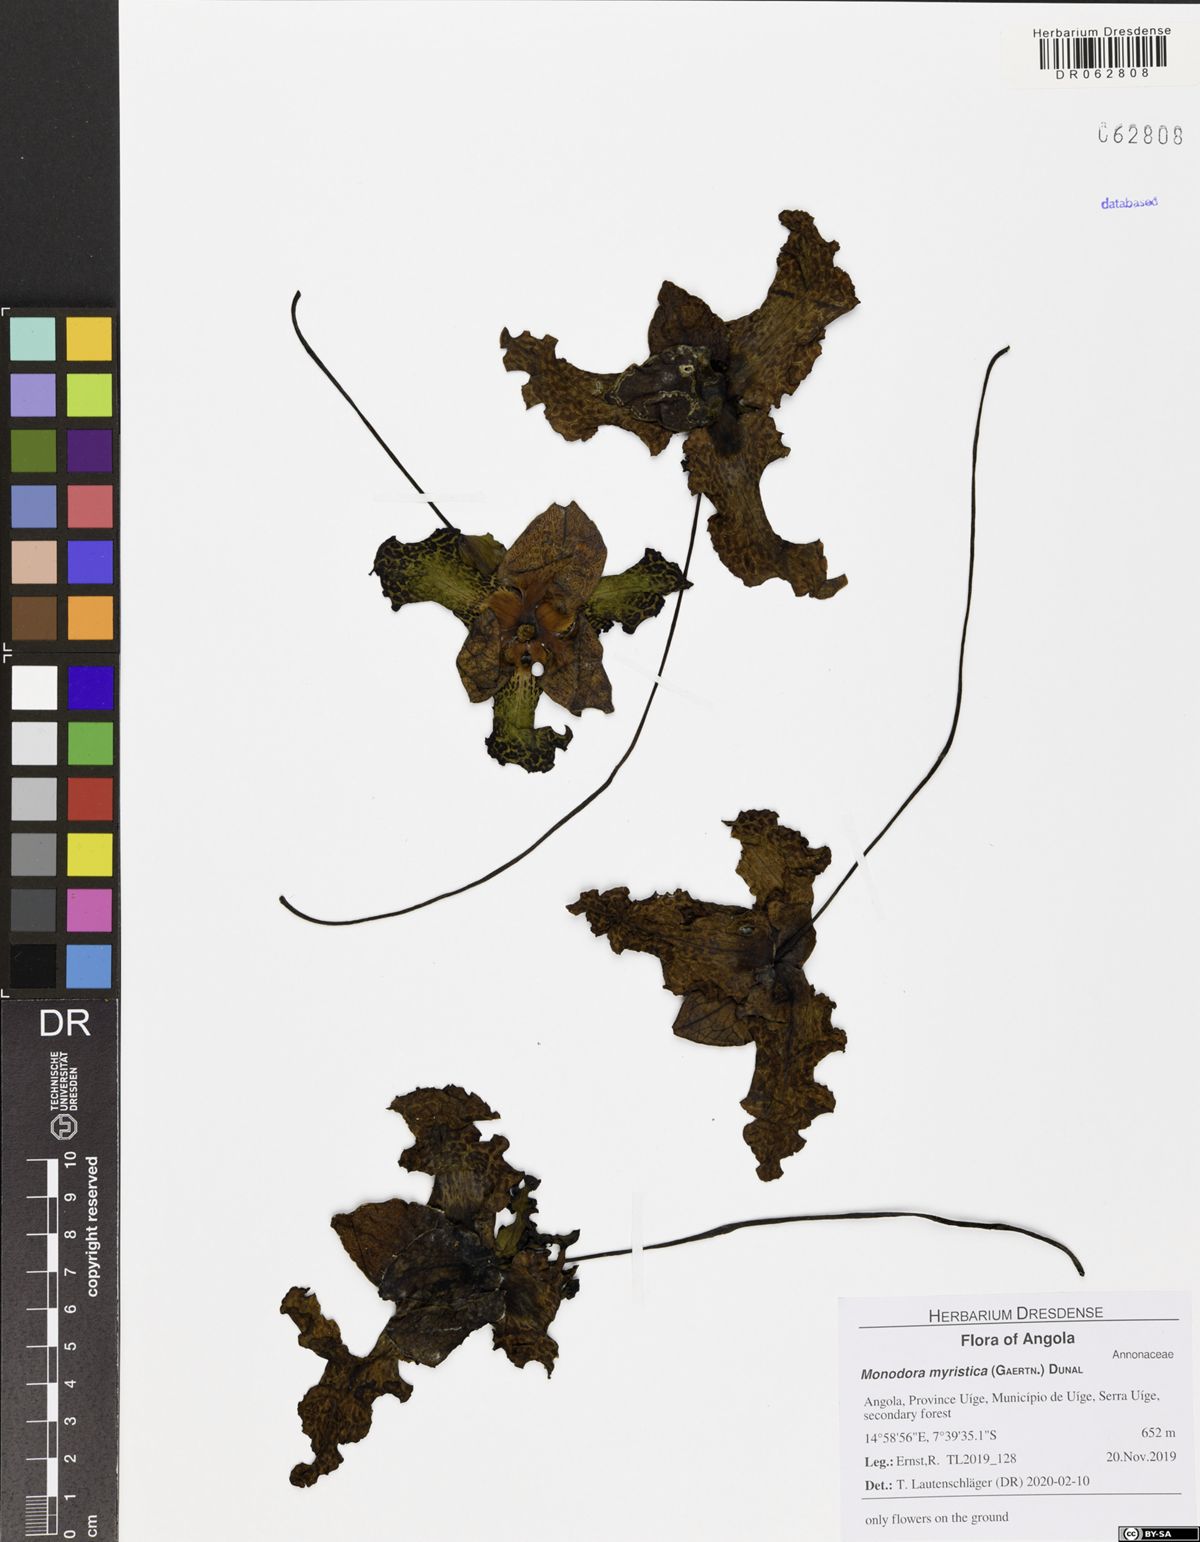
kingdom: Plantae
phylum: Tracheophyta
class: Magnoliopsida
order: Magnoliales
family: Annonaceae
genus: Monodora
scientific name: Monodora myristica
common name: African nutmeg
